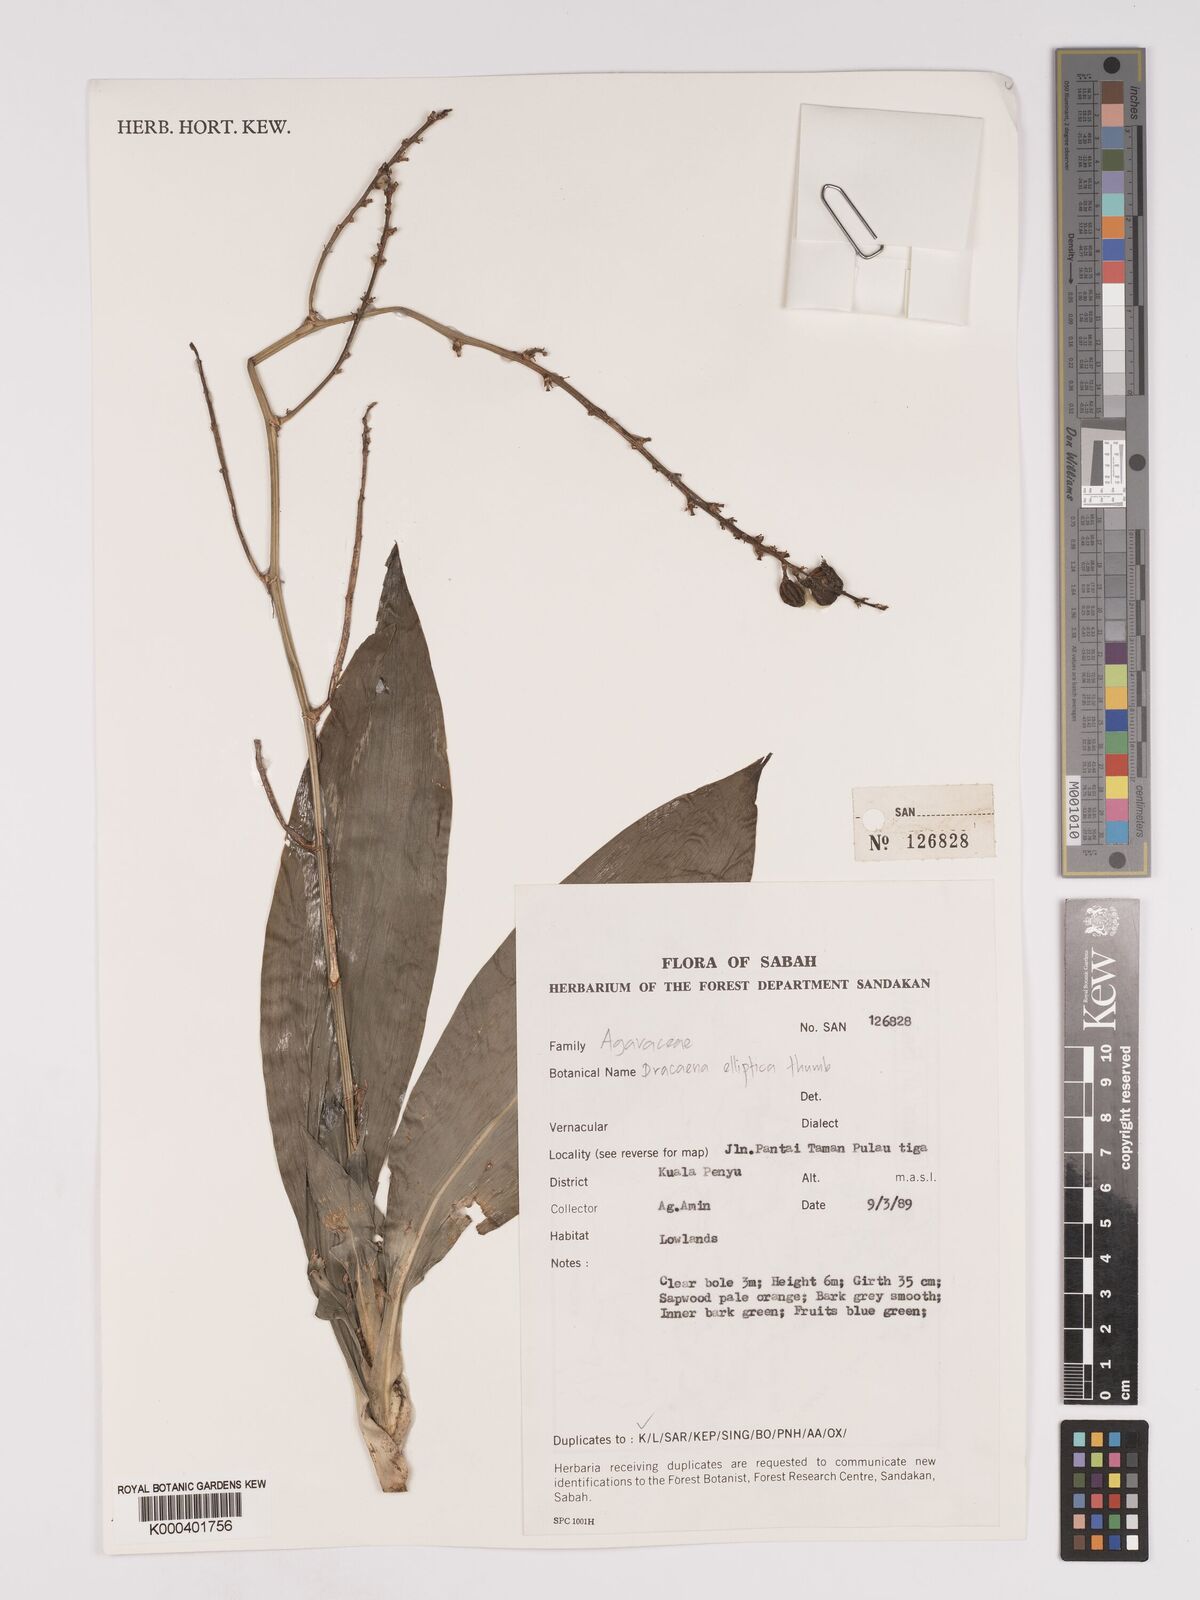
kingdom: Plantae
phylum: Tracheophyta
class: Liliopsida
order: Asparagales
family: Asparagaceae
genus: Dracaena
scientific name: Dracaena elliptica
